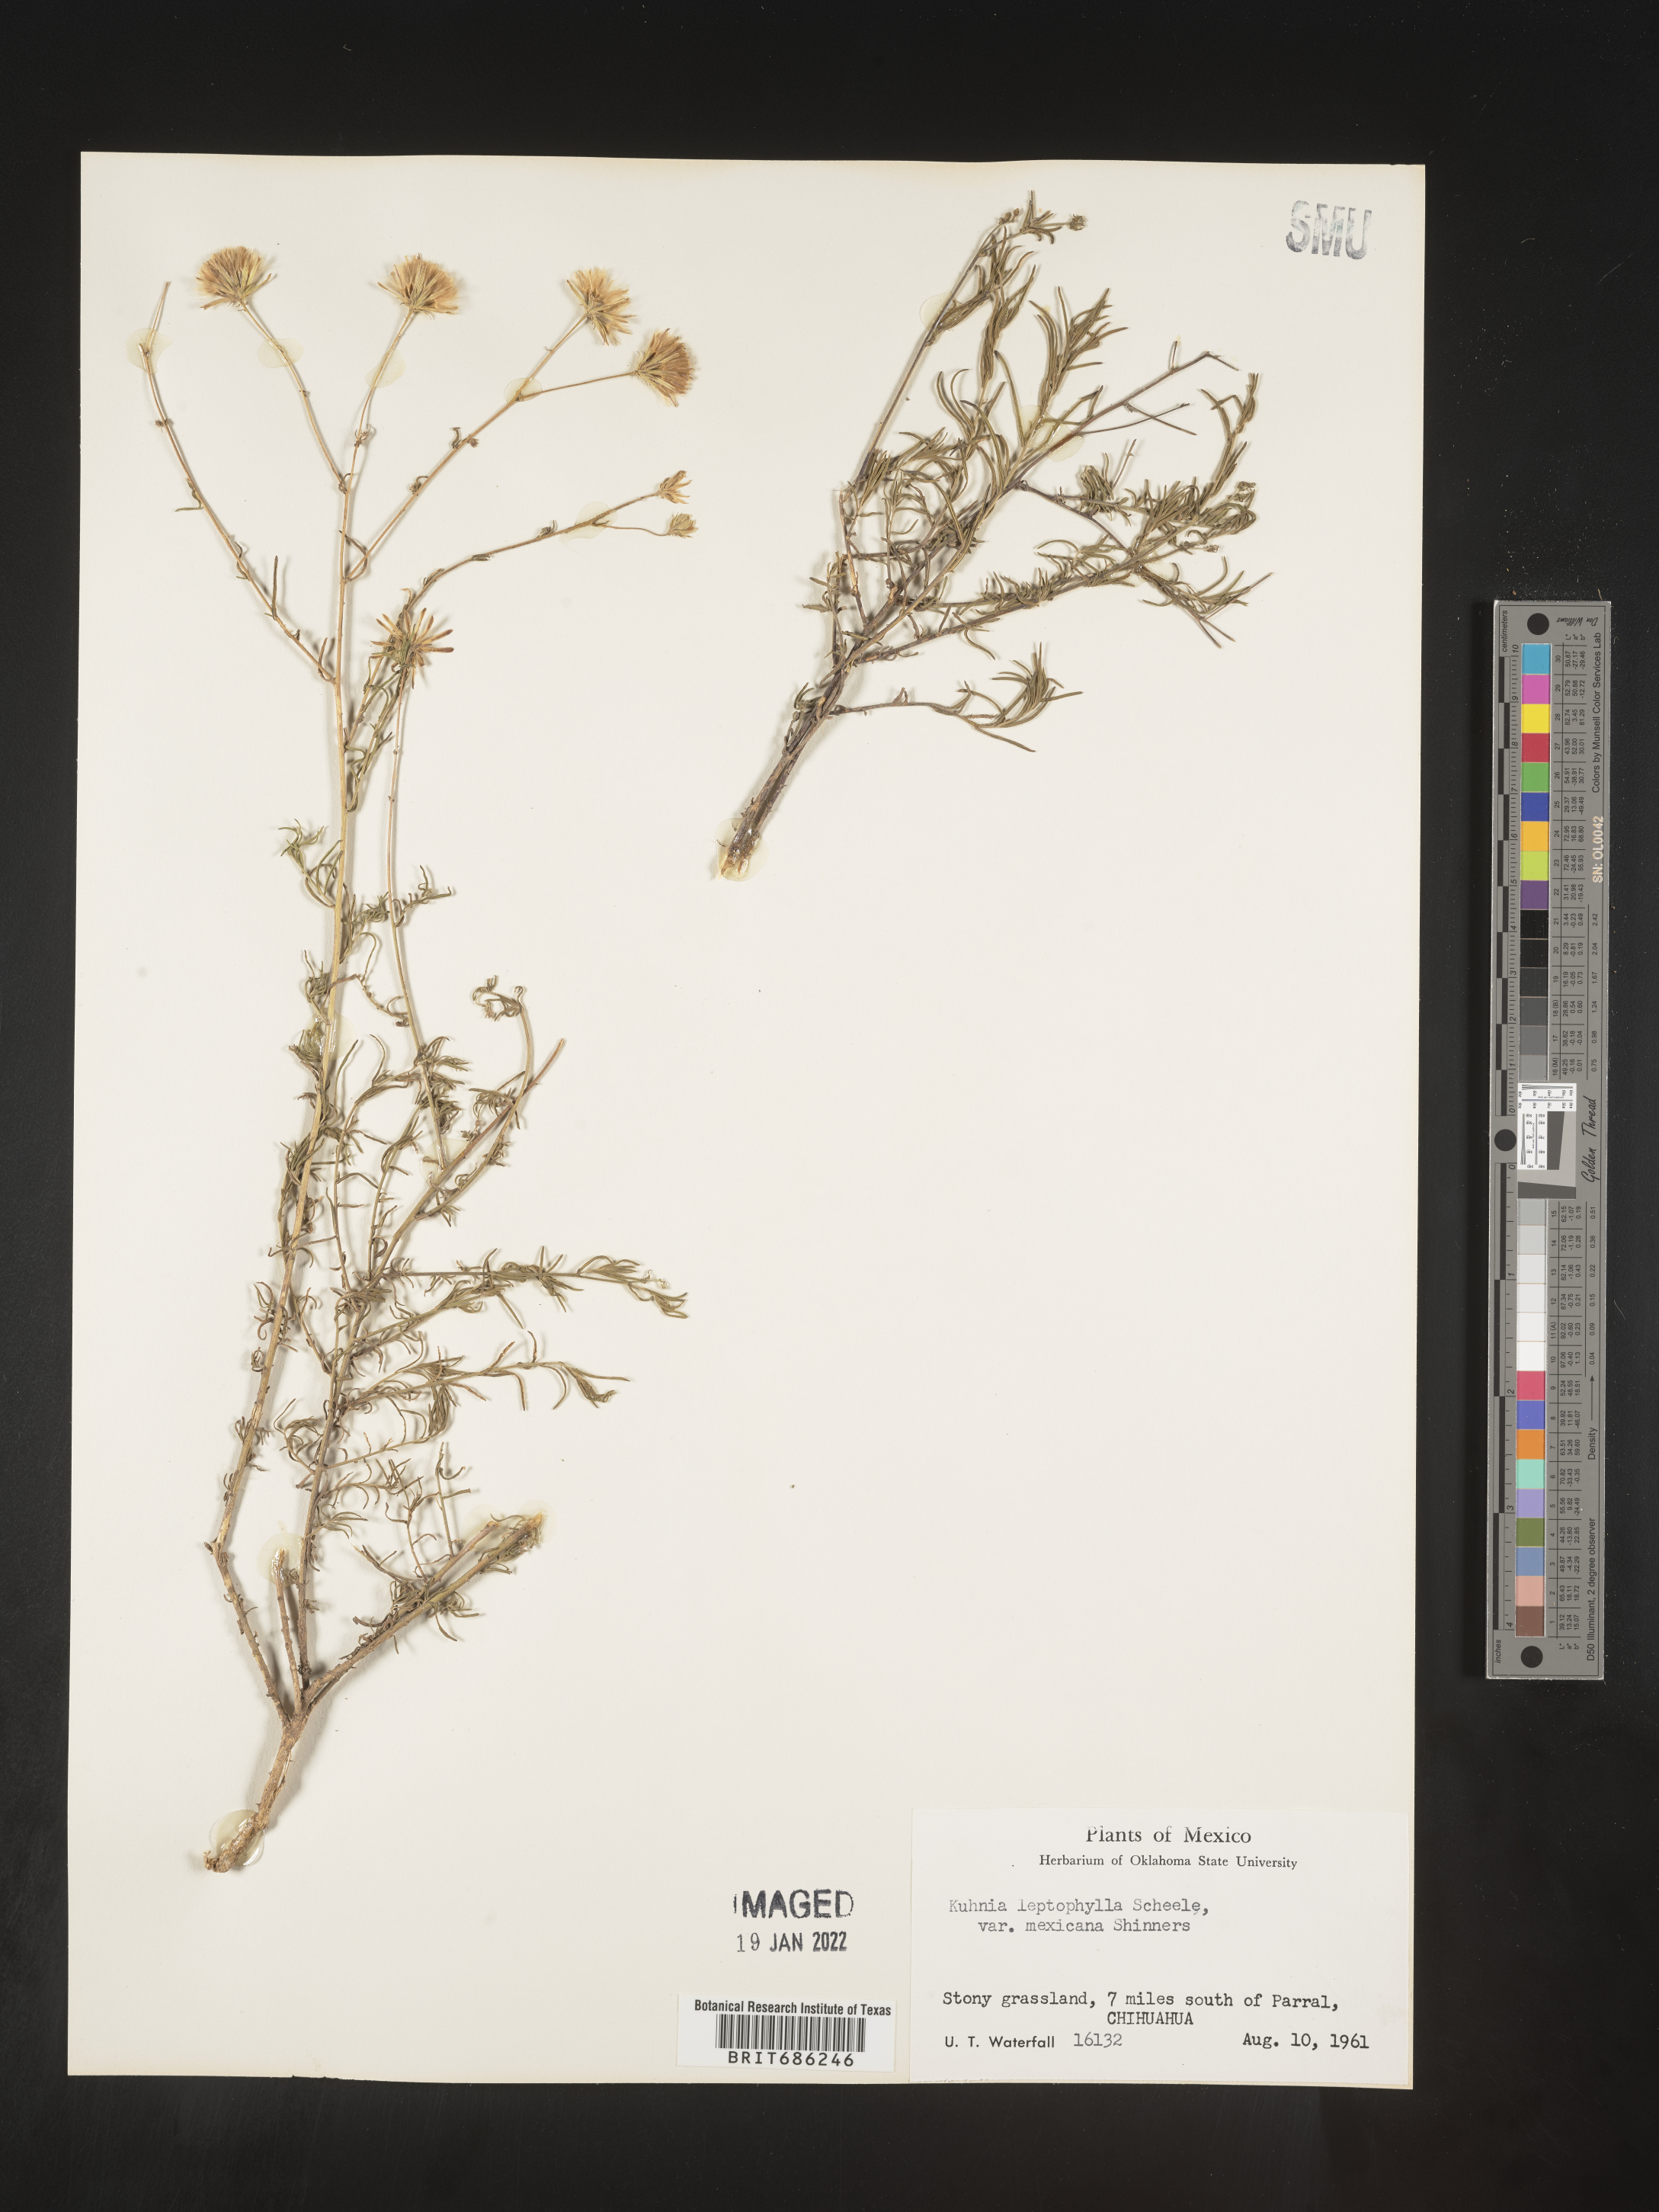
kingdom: Plantae
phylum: Tracheophyta
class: Magnoliopsida
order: Asterales
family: Asteraceae
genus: Brickellia
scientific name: Brickellia
